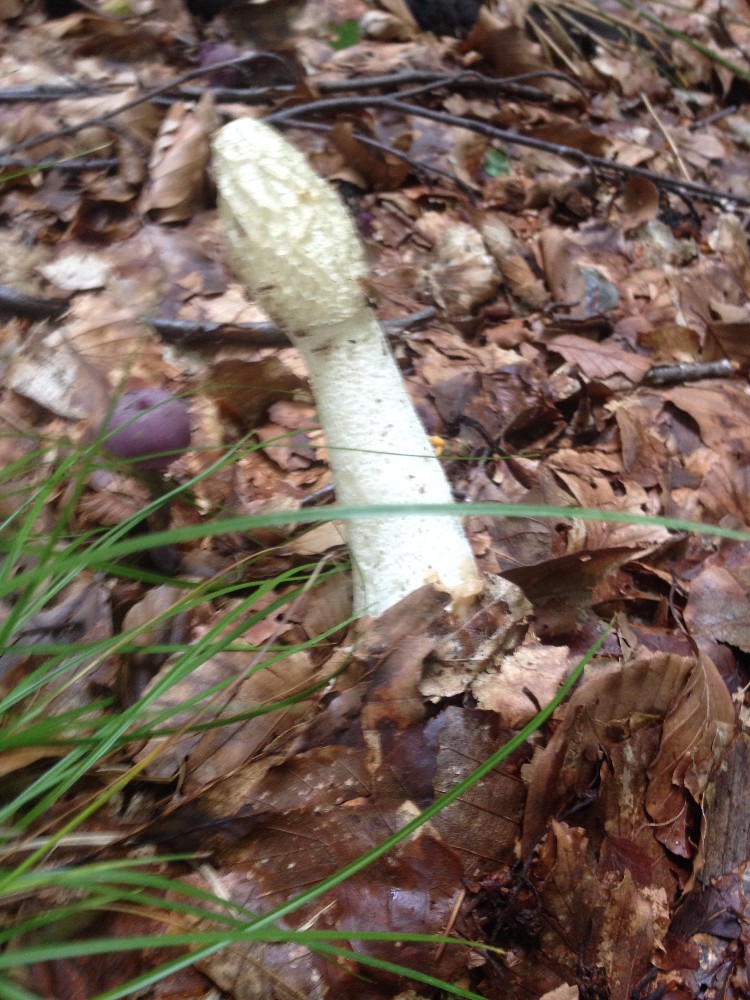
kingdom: Fungi
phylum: Basidiomycota
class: Agaricomycetes
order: Phallales
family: Phallaceae
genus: Phallus
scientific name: Phallus impudicus
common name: almindelig stinksvamp
